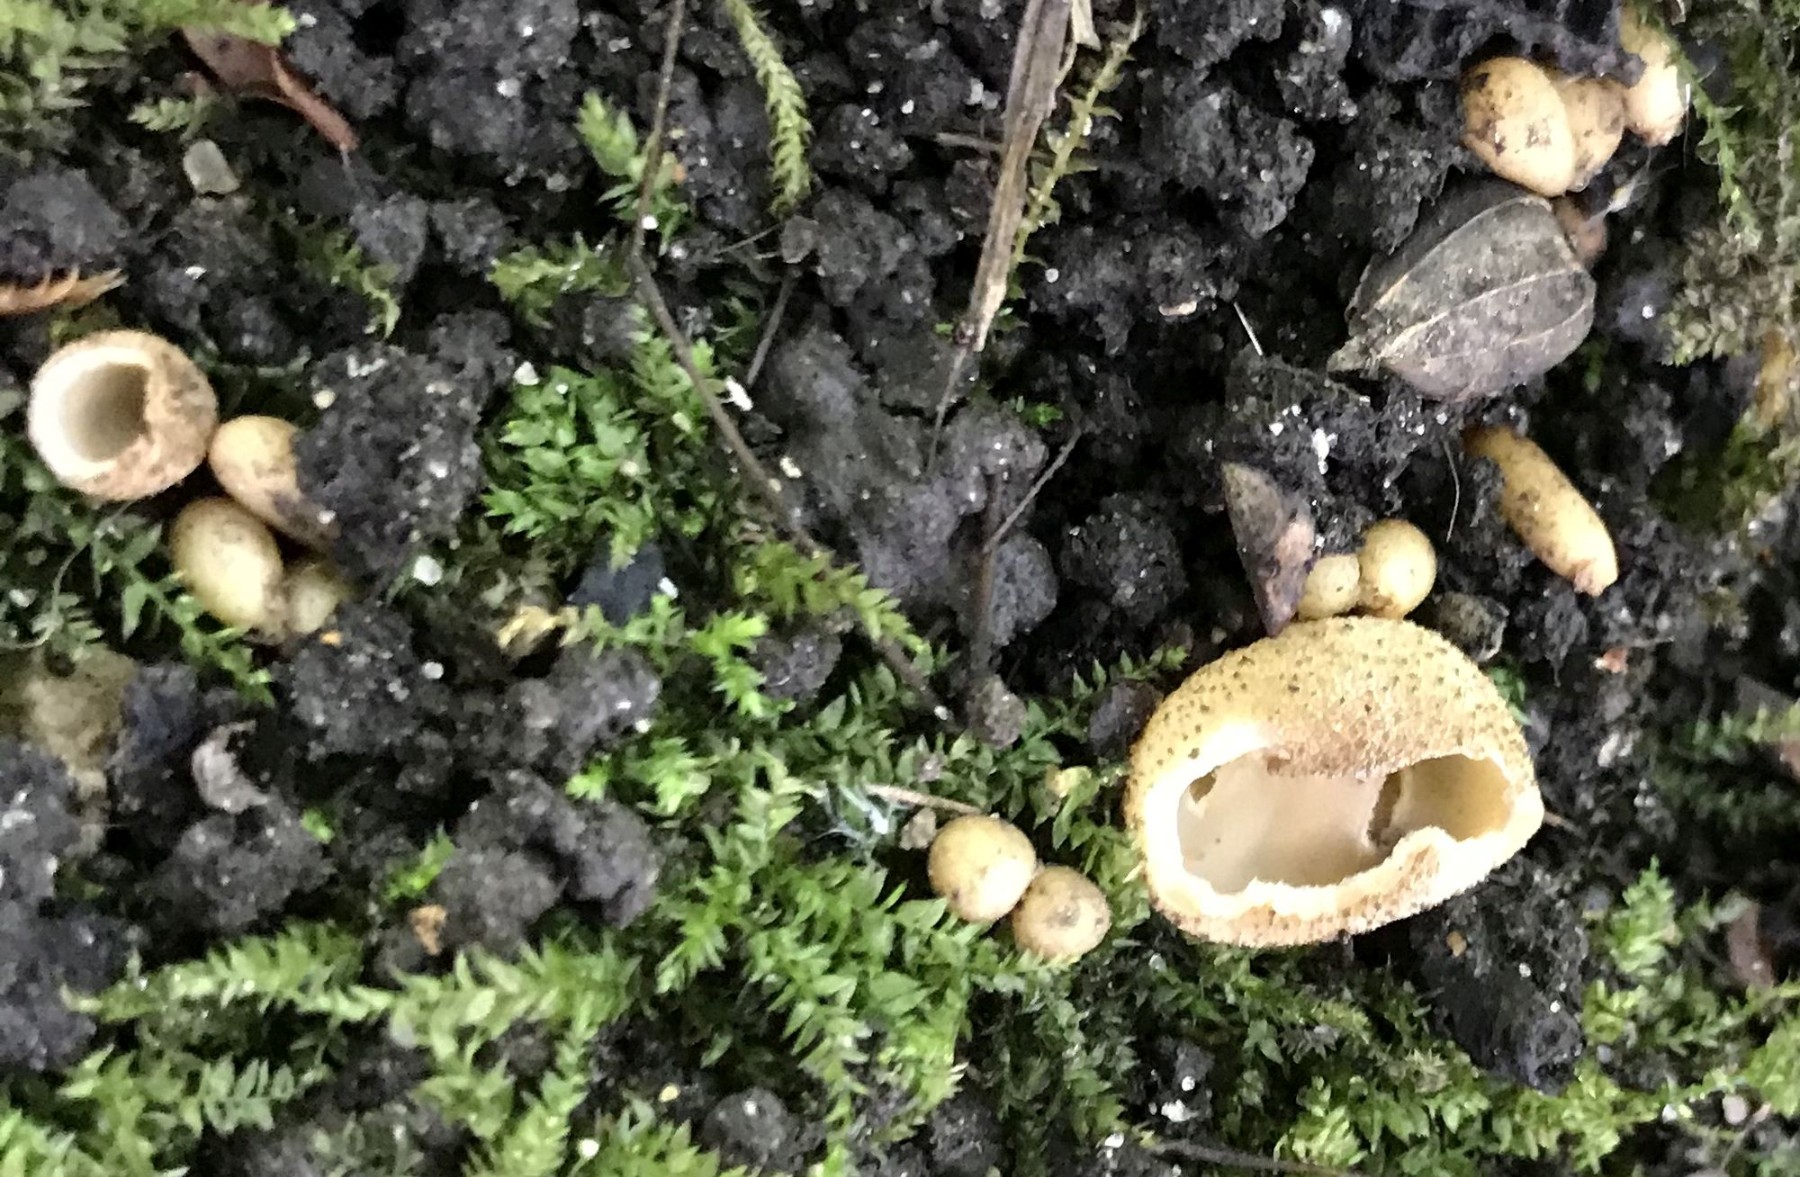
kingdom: Fungi
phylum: Ascomycota
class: Pezizomycetes
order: Pezizales
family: Pyronemataceae
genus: Tarzetta
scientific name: Tarzetta cupularis
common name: gulbrun pokalbæger
